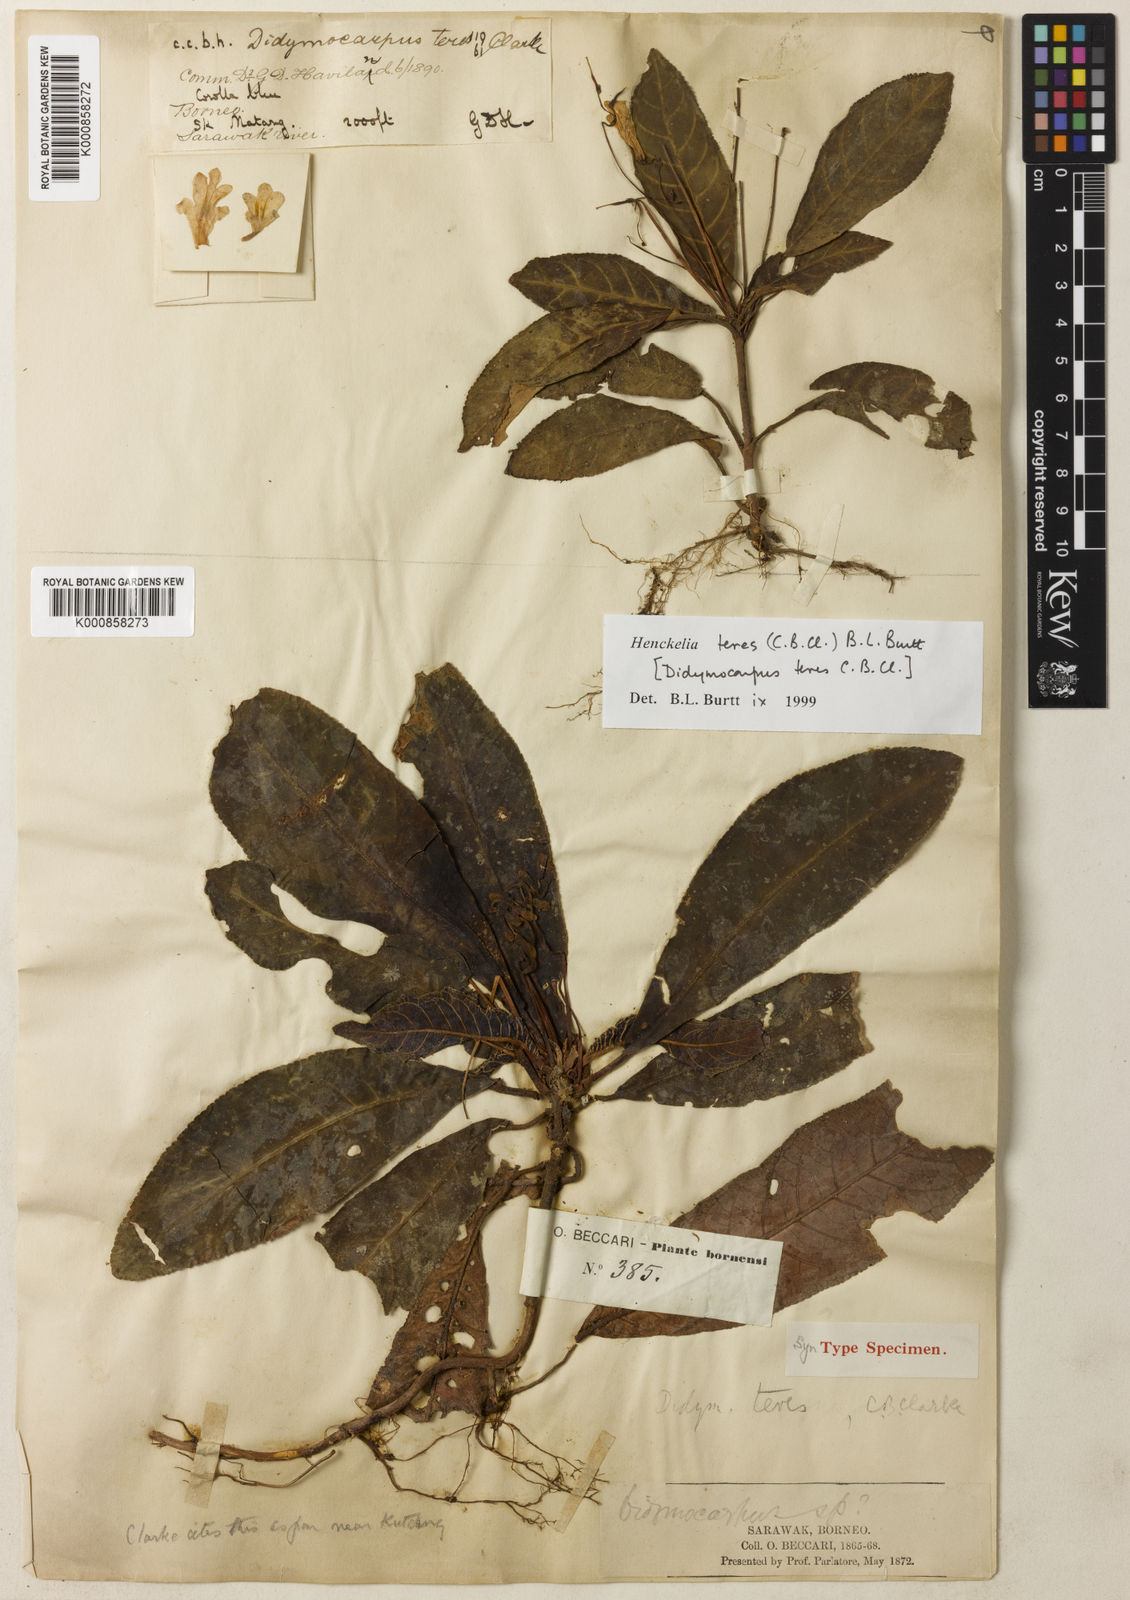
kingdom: Plantae
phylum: Tracheophyta
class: Magnoliopsida
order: Lamiales
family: Gesneriaceae
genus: Codonoboea
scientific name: Codonoboea teres
